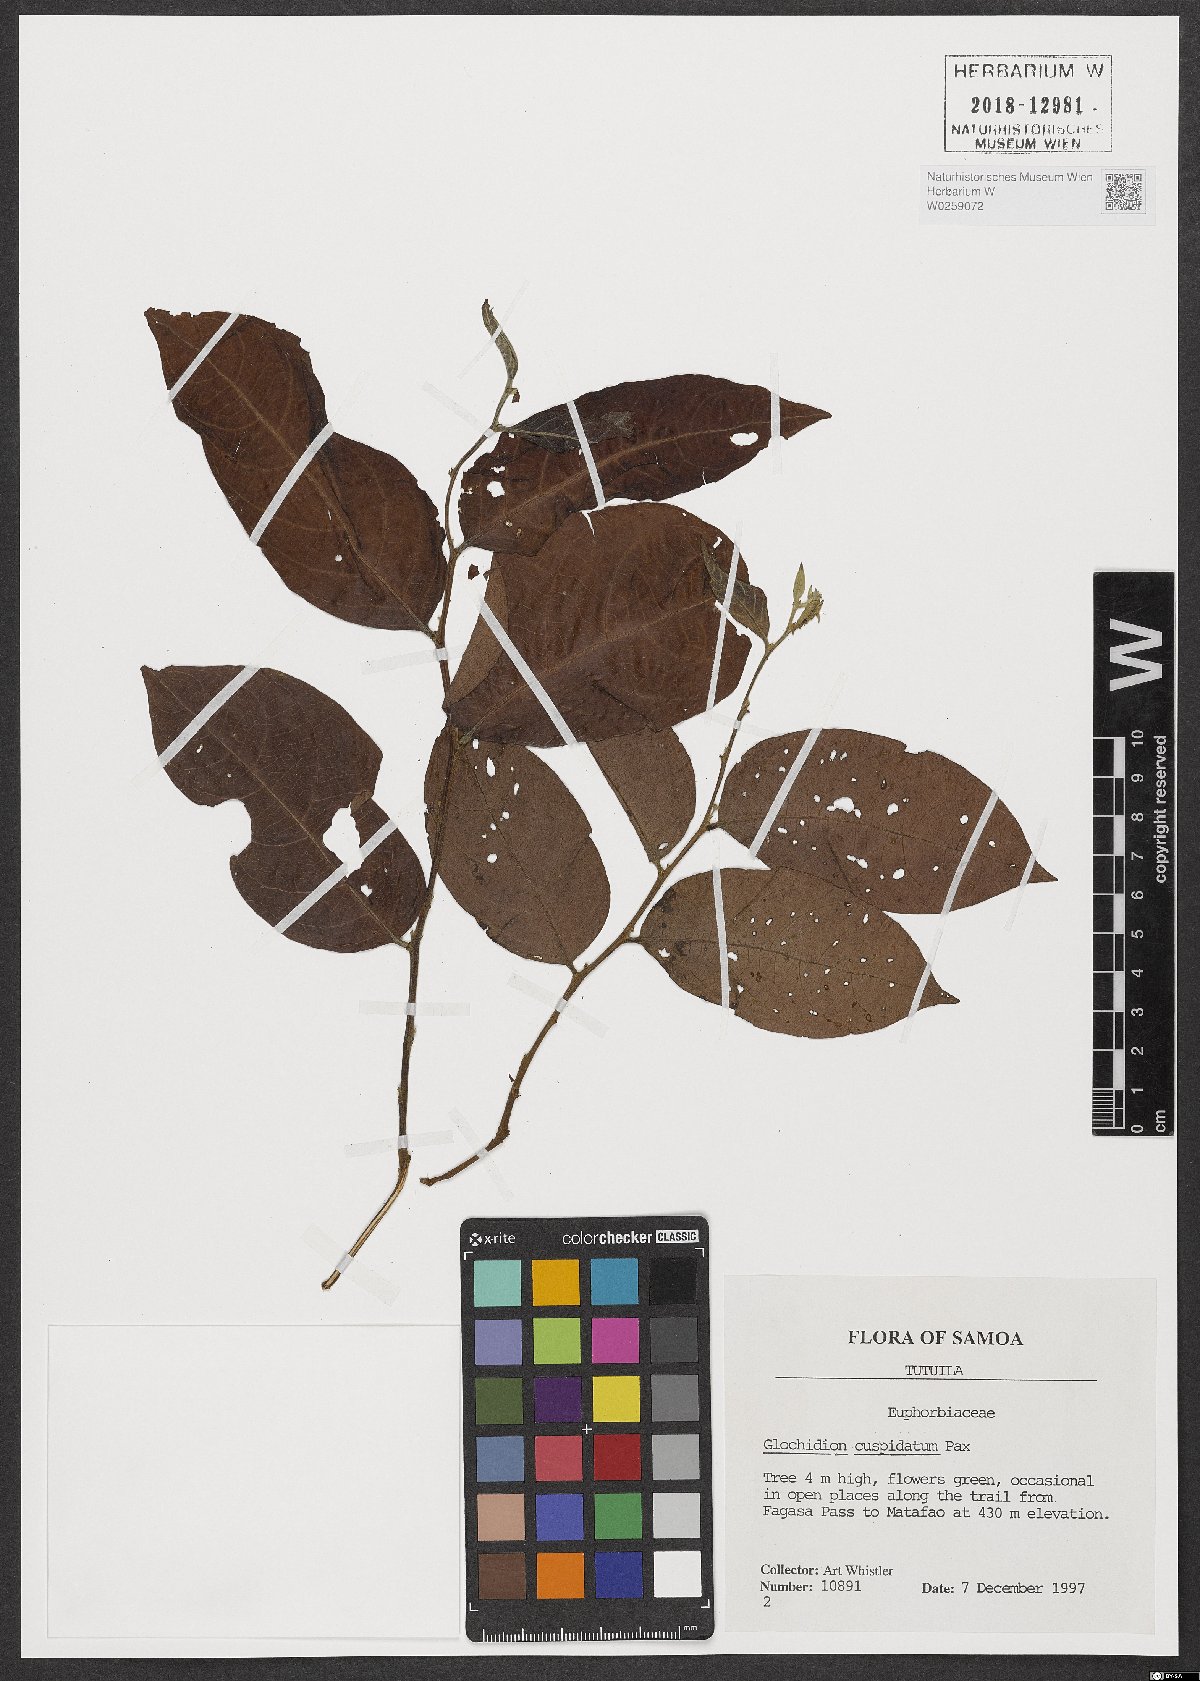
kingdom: Plantae
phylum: Tracheophyta
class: Magnoliopsida
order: Malpighiales
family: Phyllanthaceae
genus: Glochidion
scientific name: Glochidion cuspidatum
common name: Masame vao
